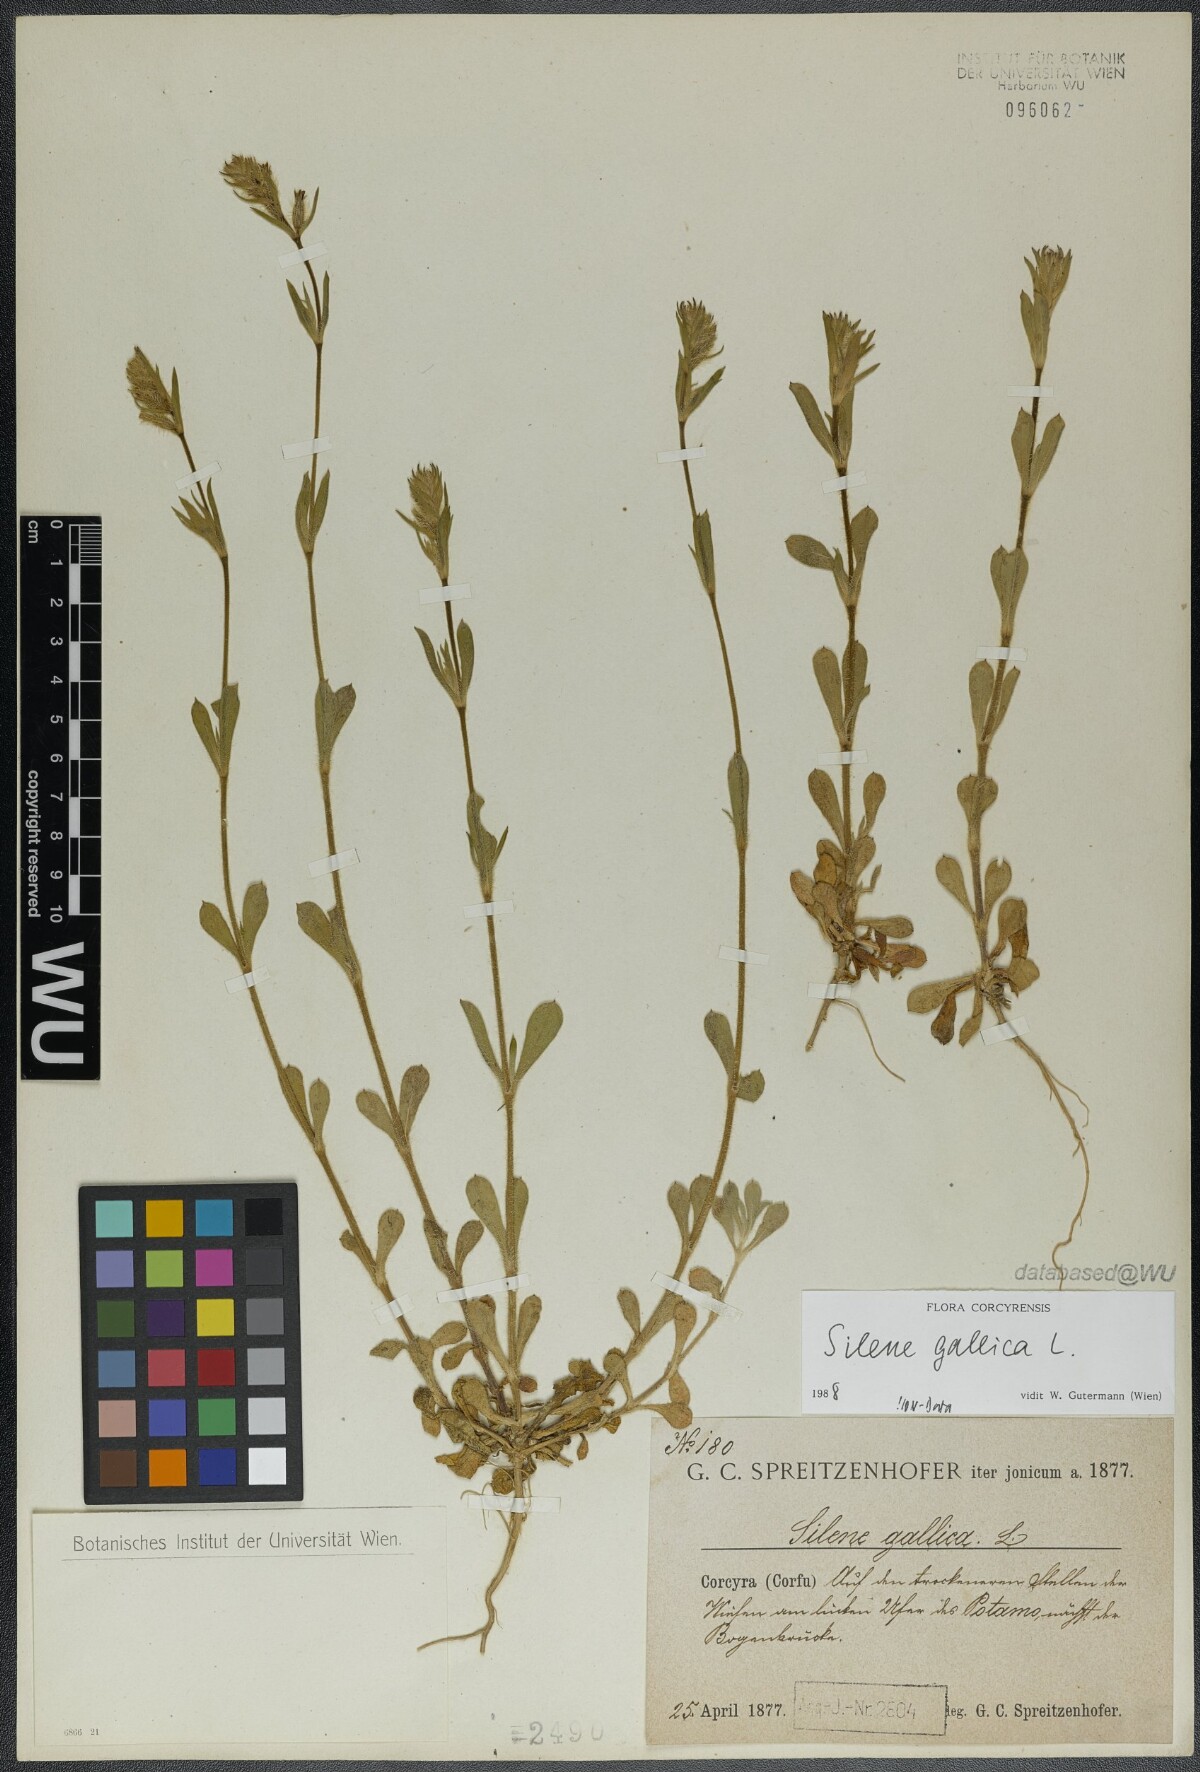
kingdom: Plantae
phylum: Tracheophyta
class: Magnoliopsida
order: Caryophyllales
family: Caryophyllaceae
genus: Silene
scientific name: Silene gallica
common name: Small-flowered catchfly
